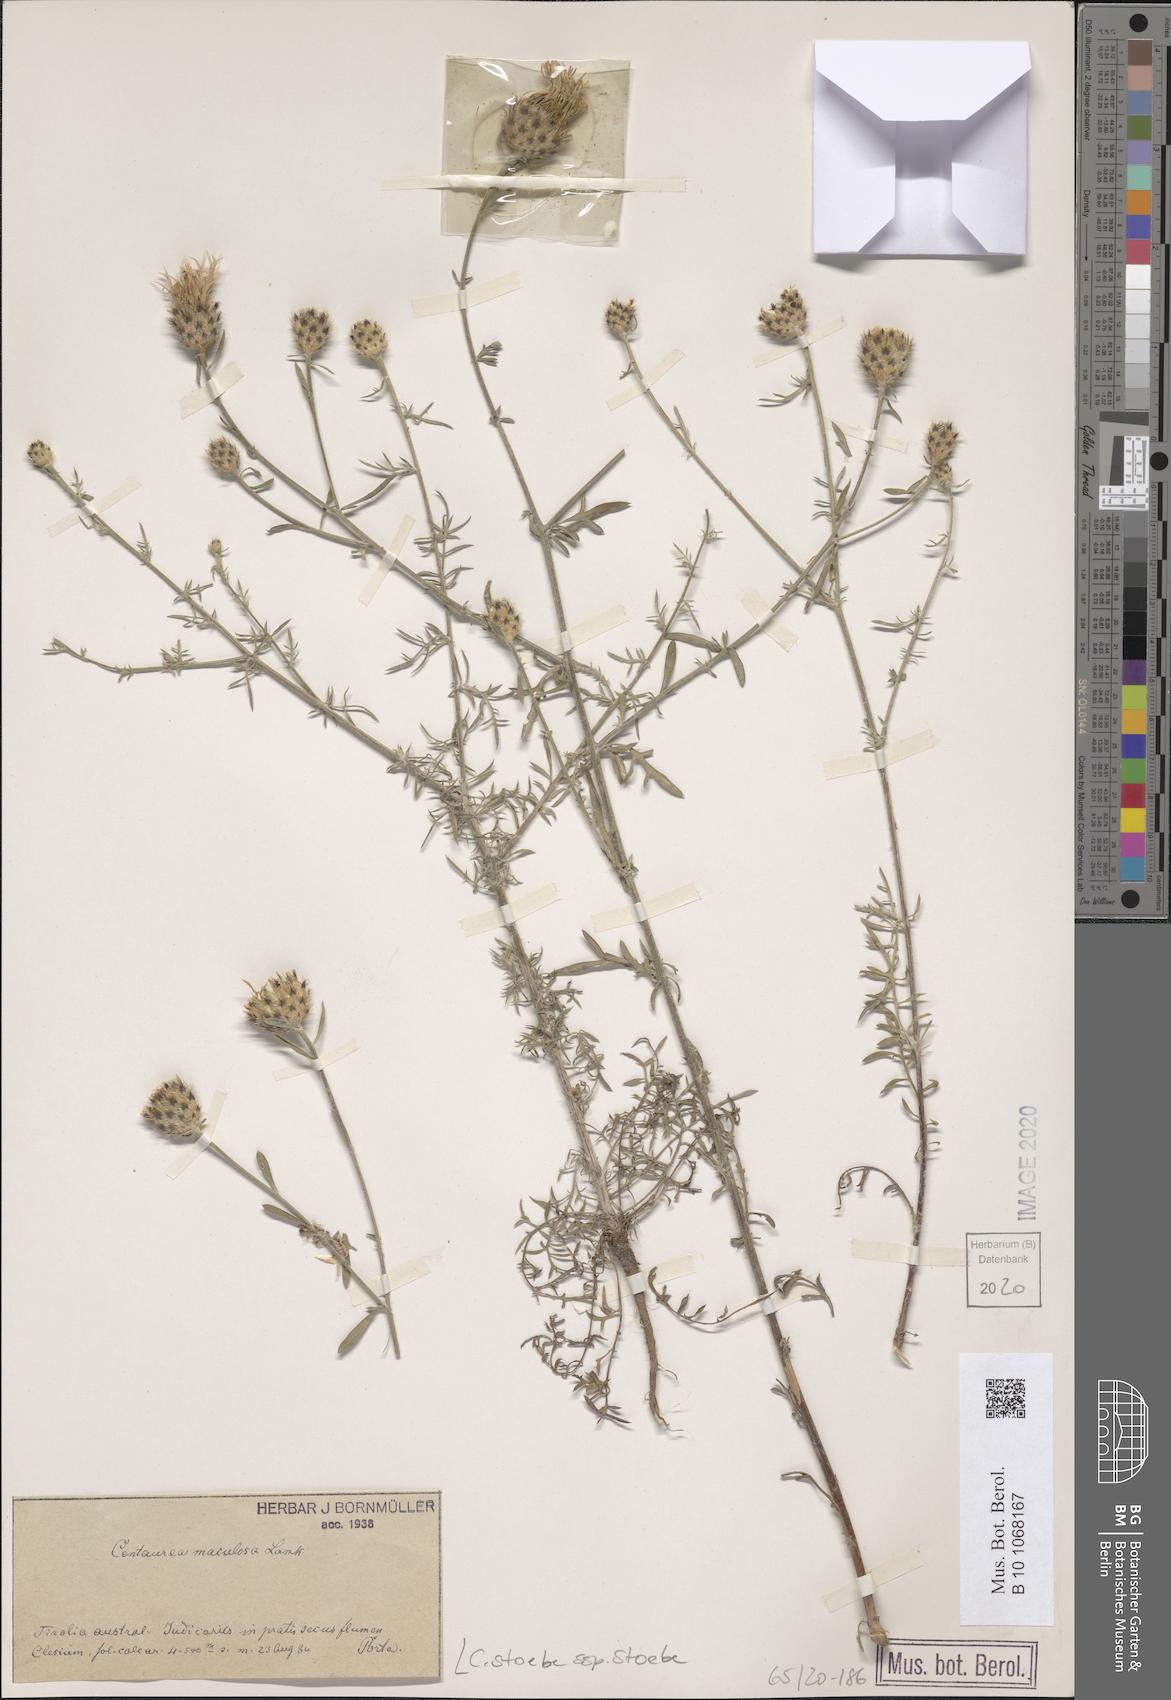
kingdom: Plantae
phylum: Tracheophyta
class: Magnoliopsida
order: Asterales
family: Asteraceae
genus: Centaurea
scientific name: Centaurea stoebe
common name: Spotted knapweed
